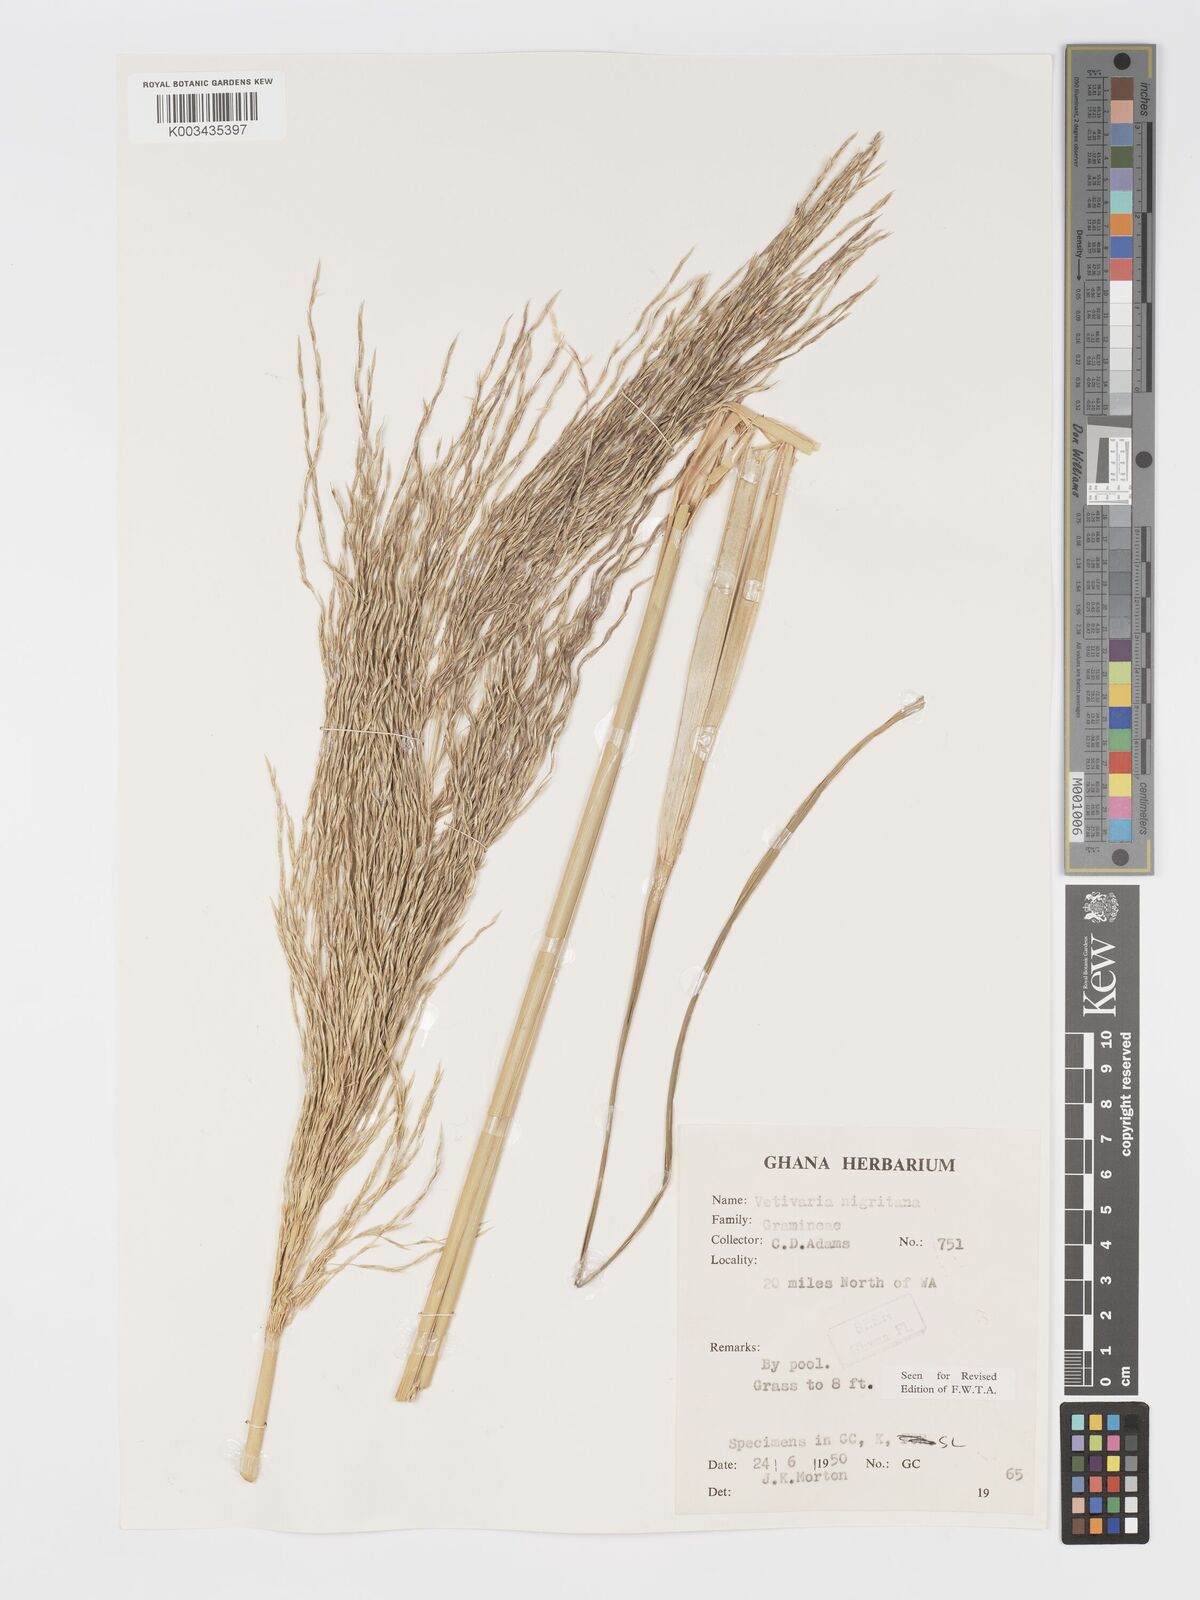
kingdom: Plantae
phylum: Tracheophyta
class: Liliopsida
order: Poales
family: Poaceae
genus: Chrysopogon
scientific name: Chrysopogon nigritanus
